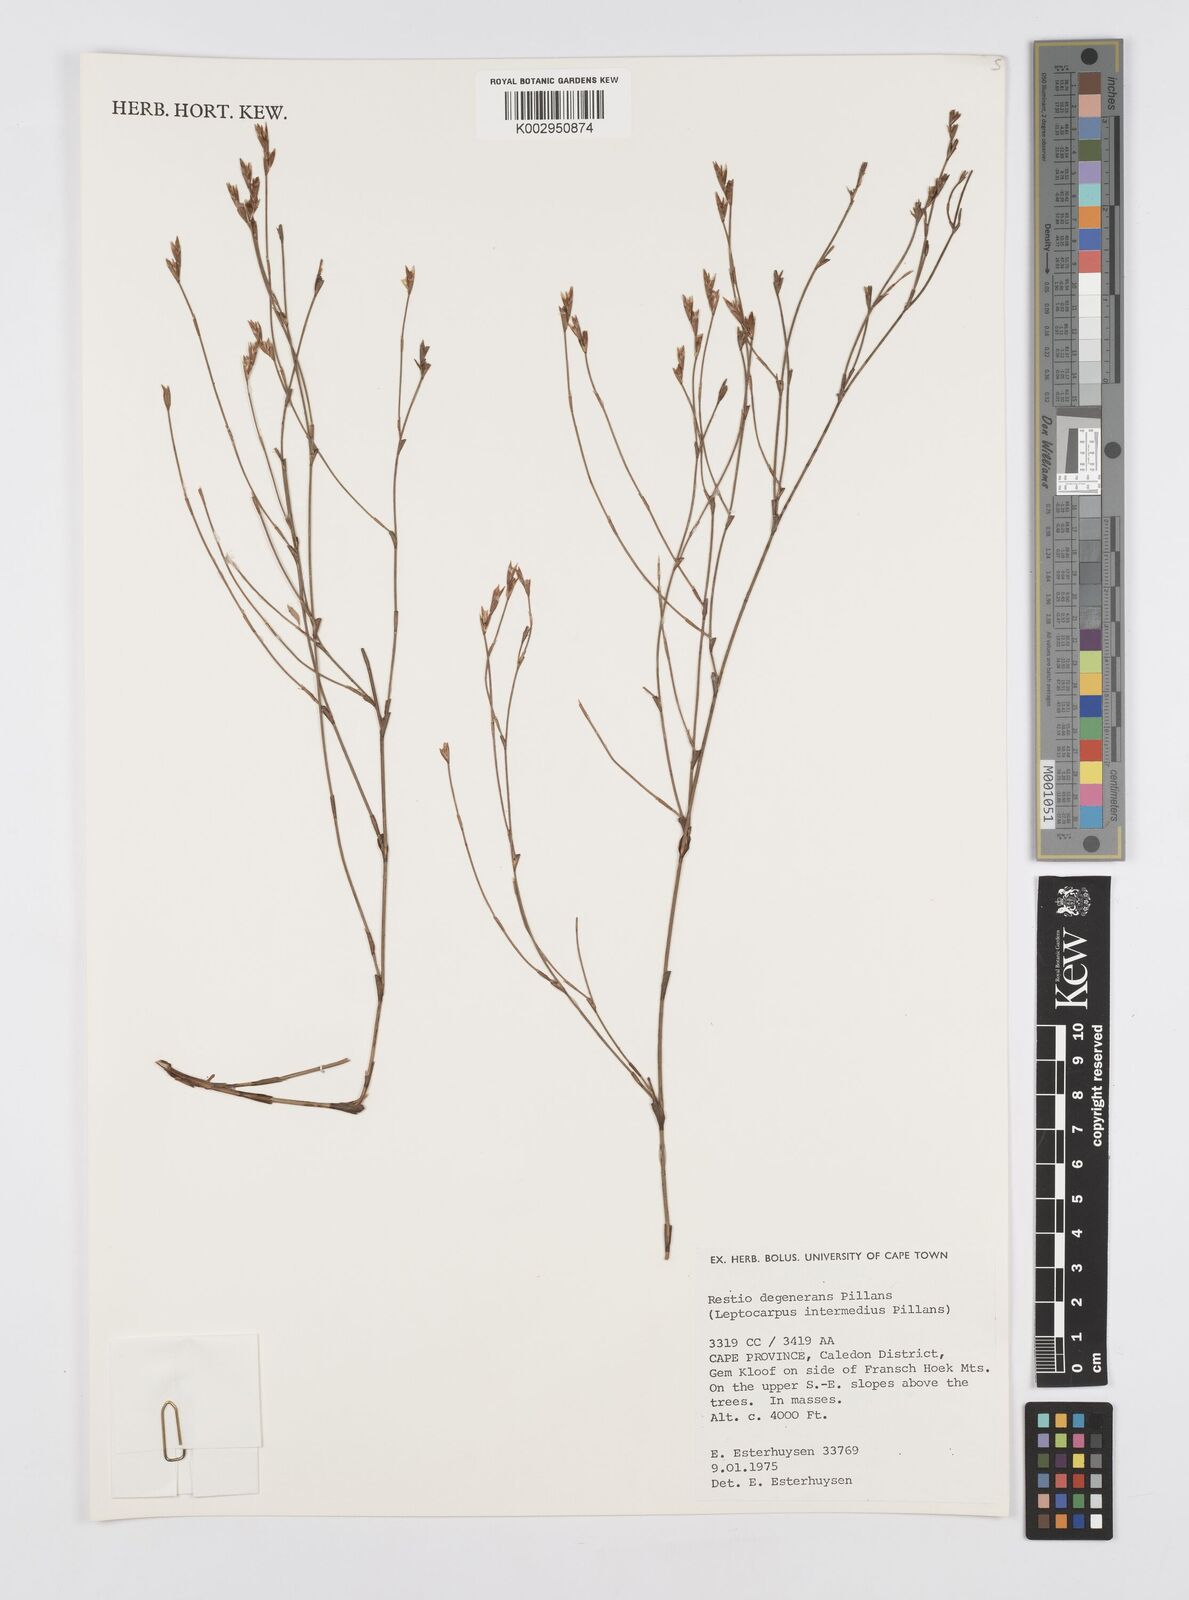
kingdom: Plantae
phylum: Tracheophyta
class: Liliopsida
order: Poales
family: Restionaceae
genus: Restio
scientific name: Restio degenerans
